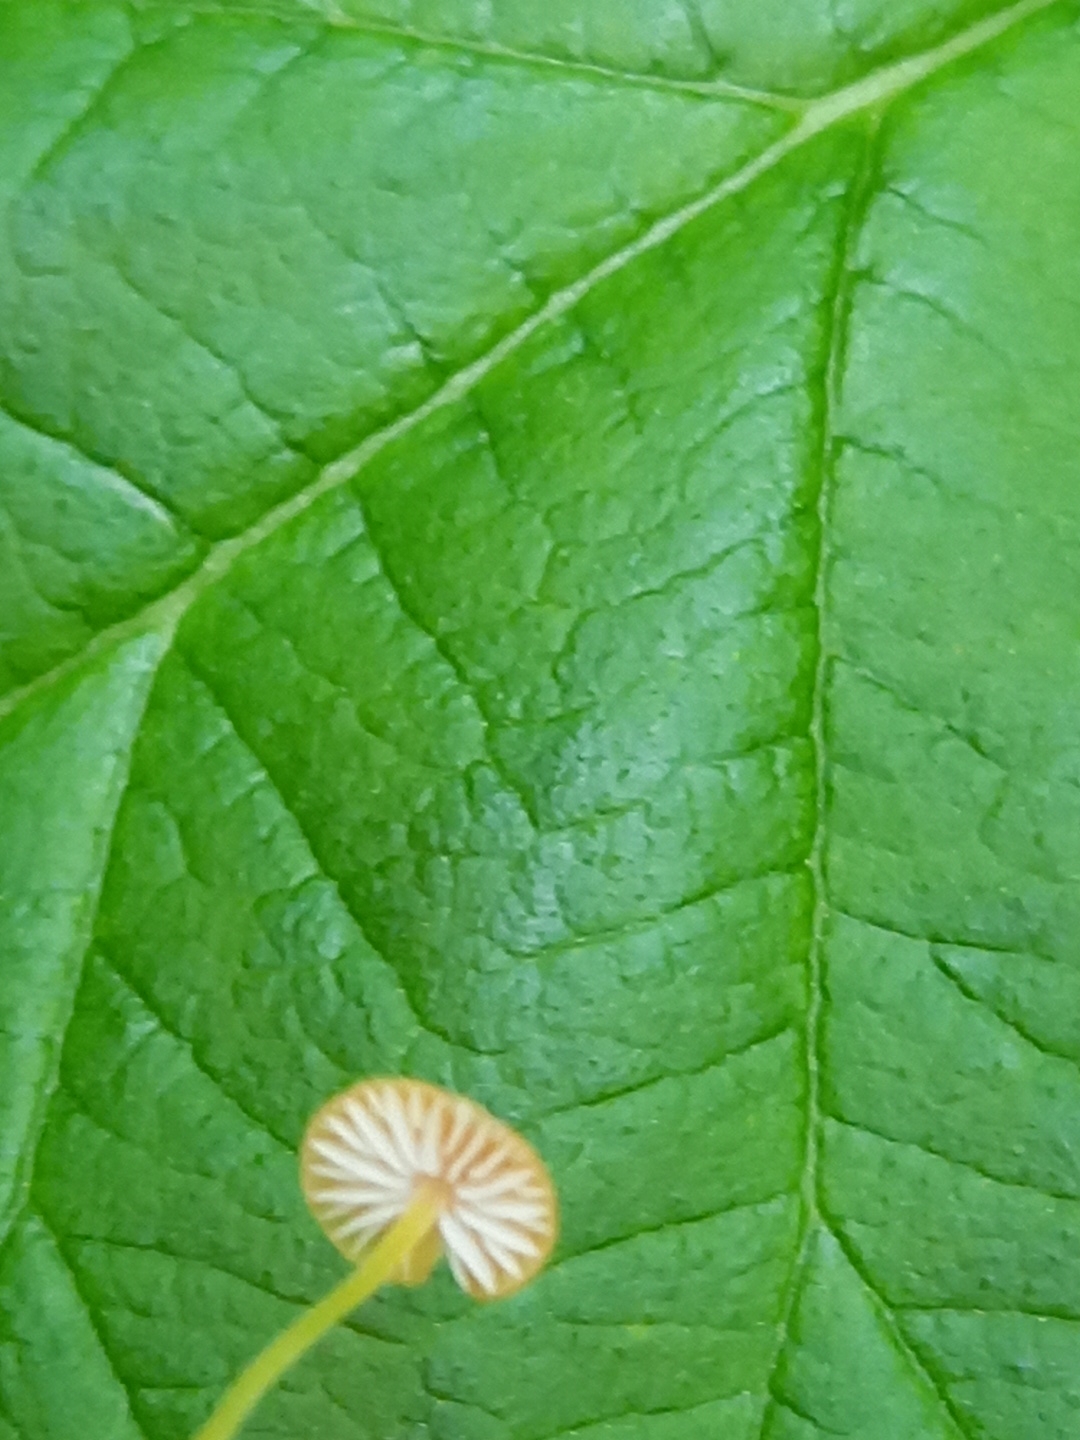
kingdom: Fungi
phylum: Basidiomycota
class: Agaricomycetes
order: Agaricales
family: Mycenaceae
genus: Mycena
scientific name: Mycena acicula
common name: orange huesvamp
